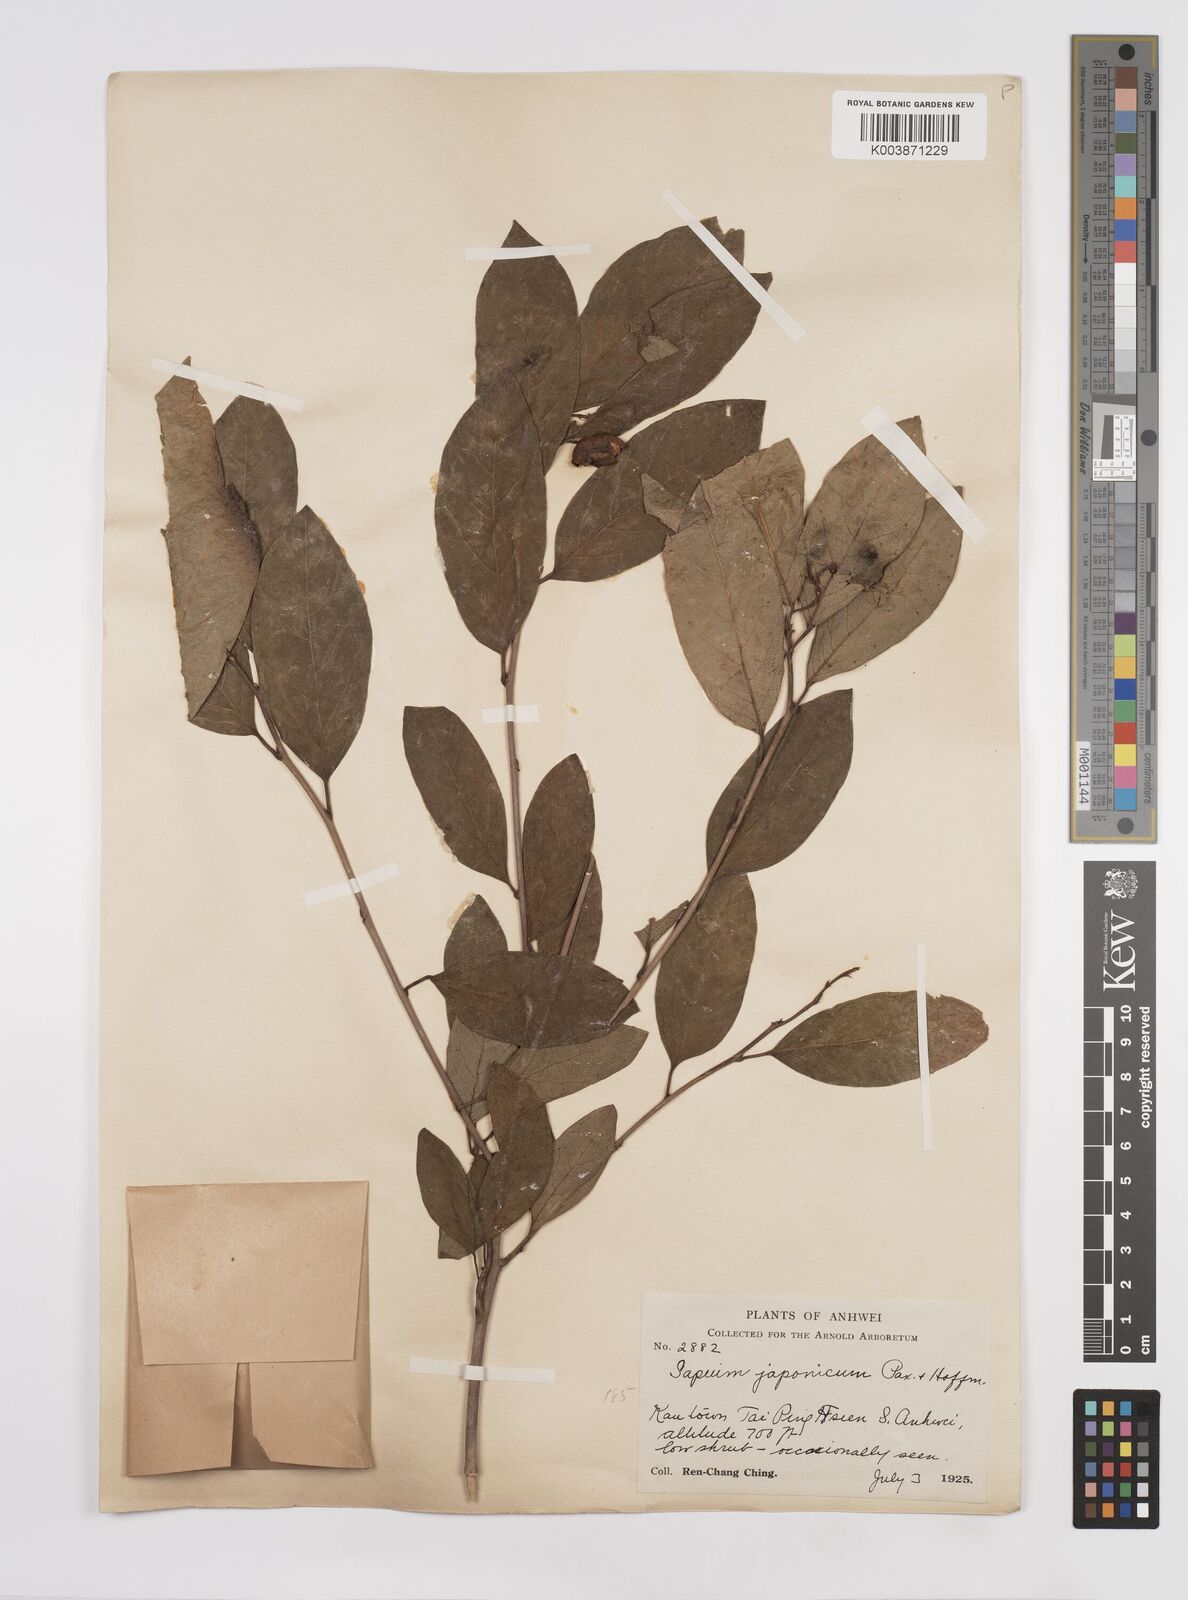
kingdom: Plantae
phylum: Tracheophyta
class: Magnoliopsida
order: Malpighiales
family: Euphorbiaceae
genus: Neoshirakia
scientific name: Neoshirakia japonica
